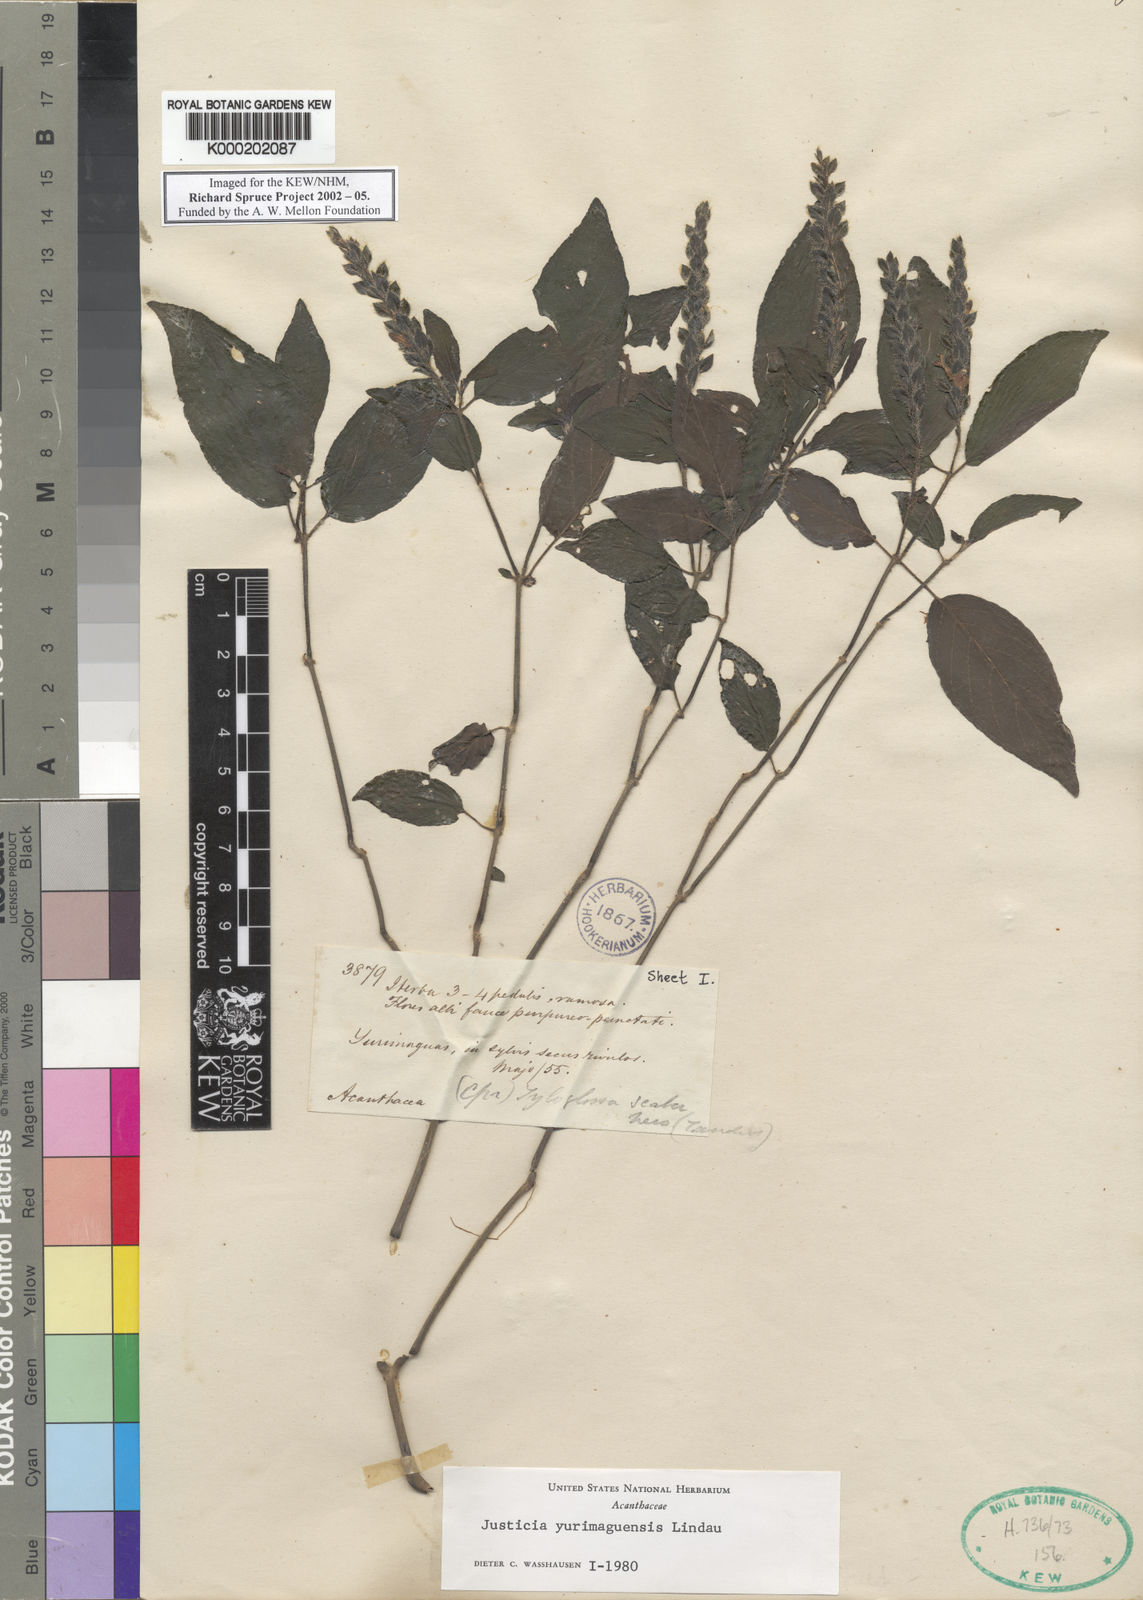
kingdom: Plantae
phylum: Tracheophyta
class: Magnoliopsida
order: Lamiales
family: Acanthaceae
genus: Justicia
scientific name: Justicia yurimaguensis
